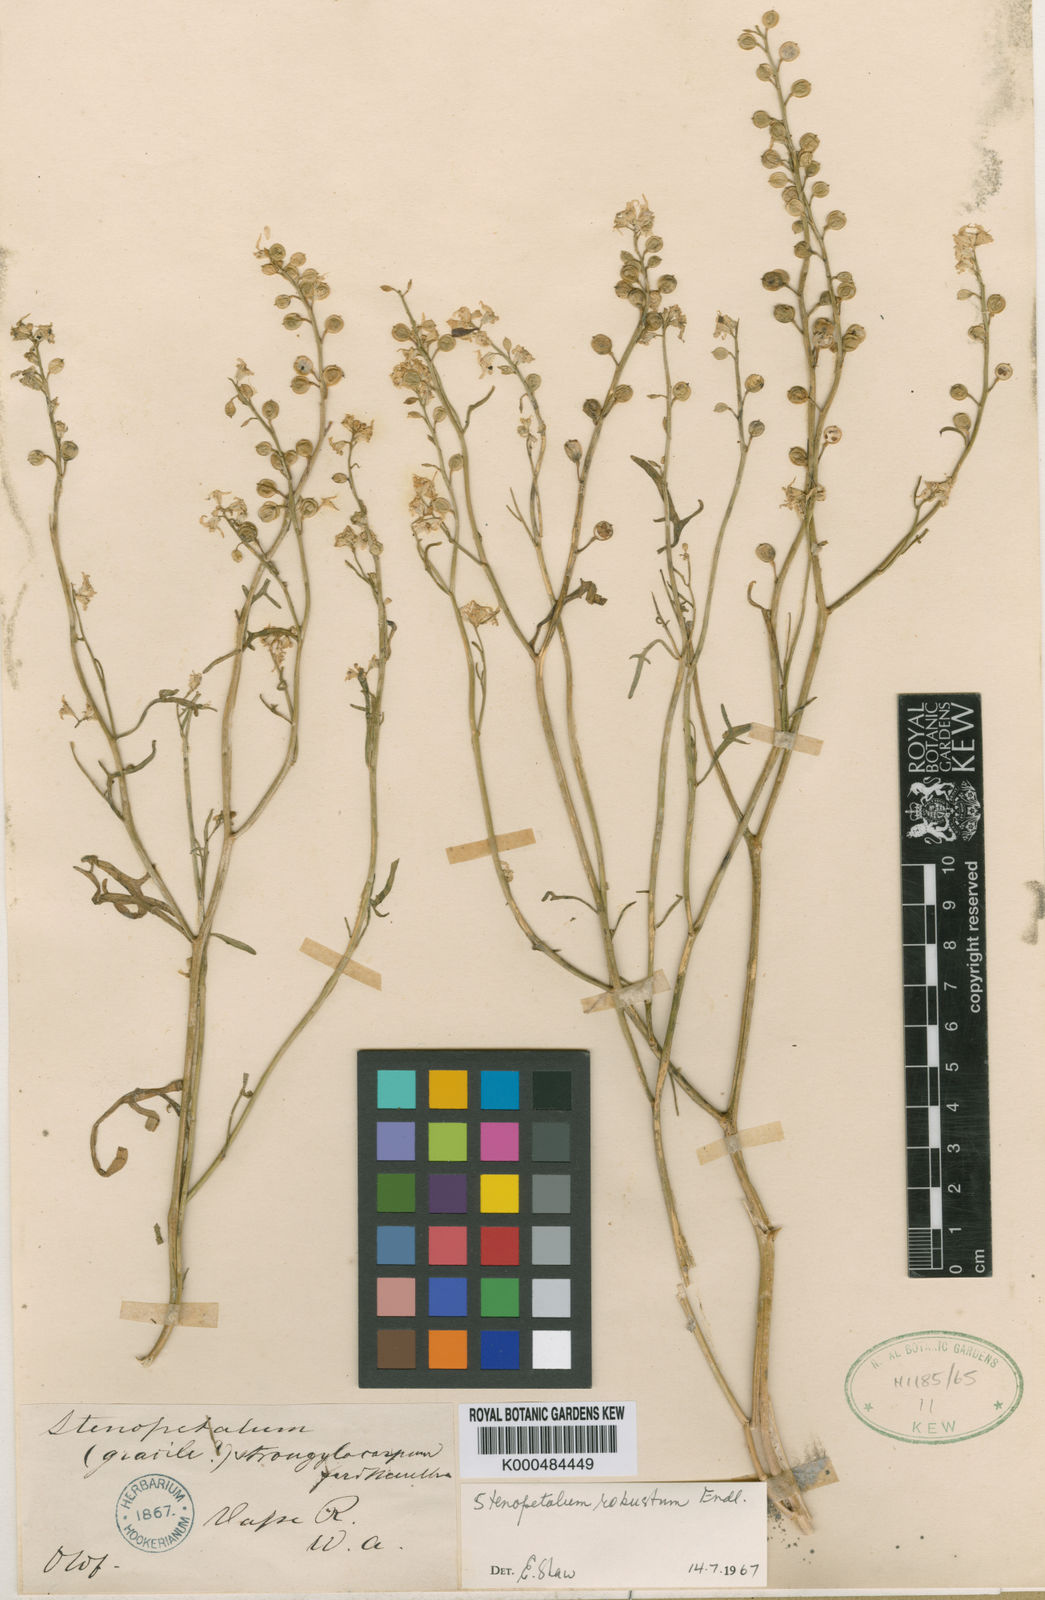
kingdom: Plantae
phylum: Tracheophyta
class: Magnoliopsida
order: Brassicales
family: Brassicaceae
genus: Stenopetalum
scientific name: Stenopetalum robustum
